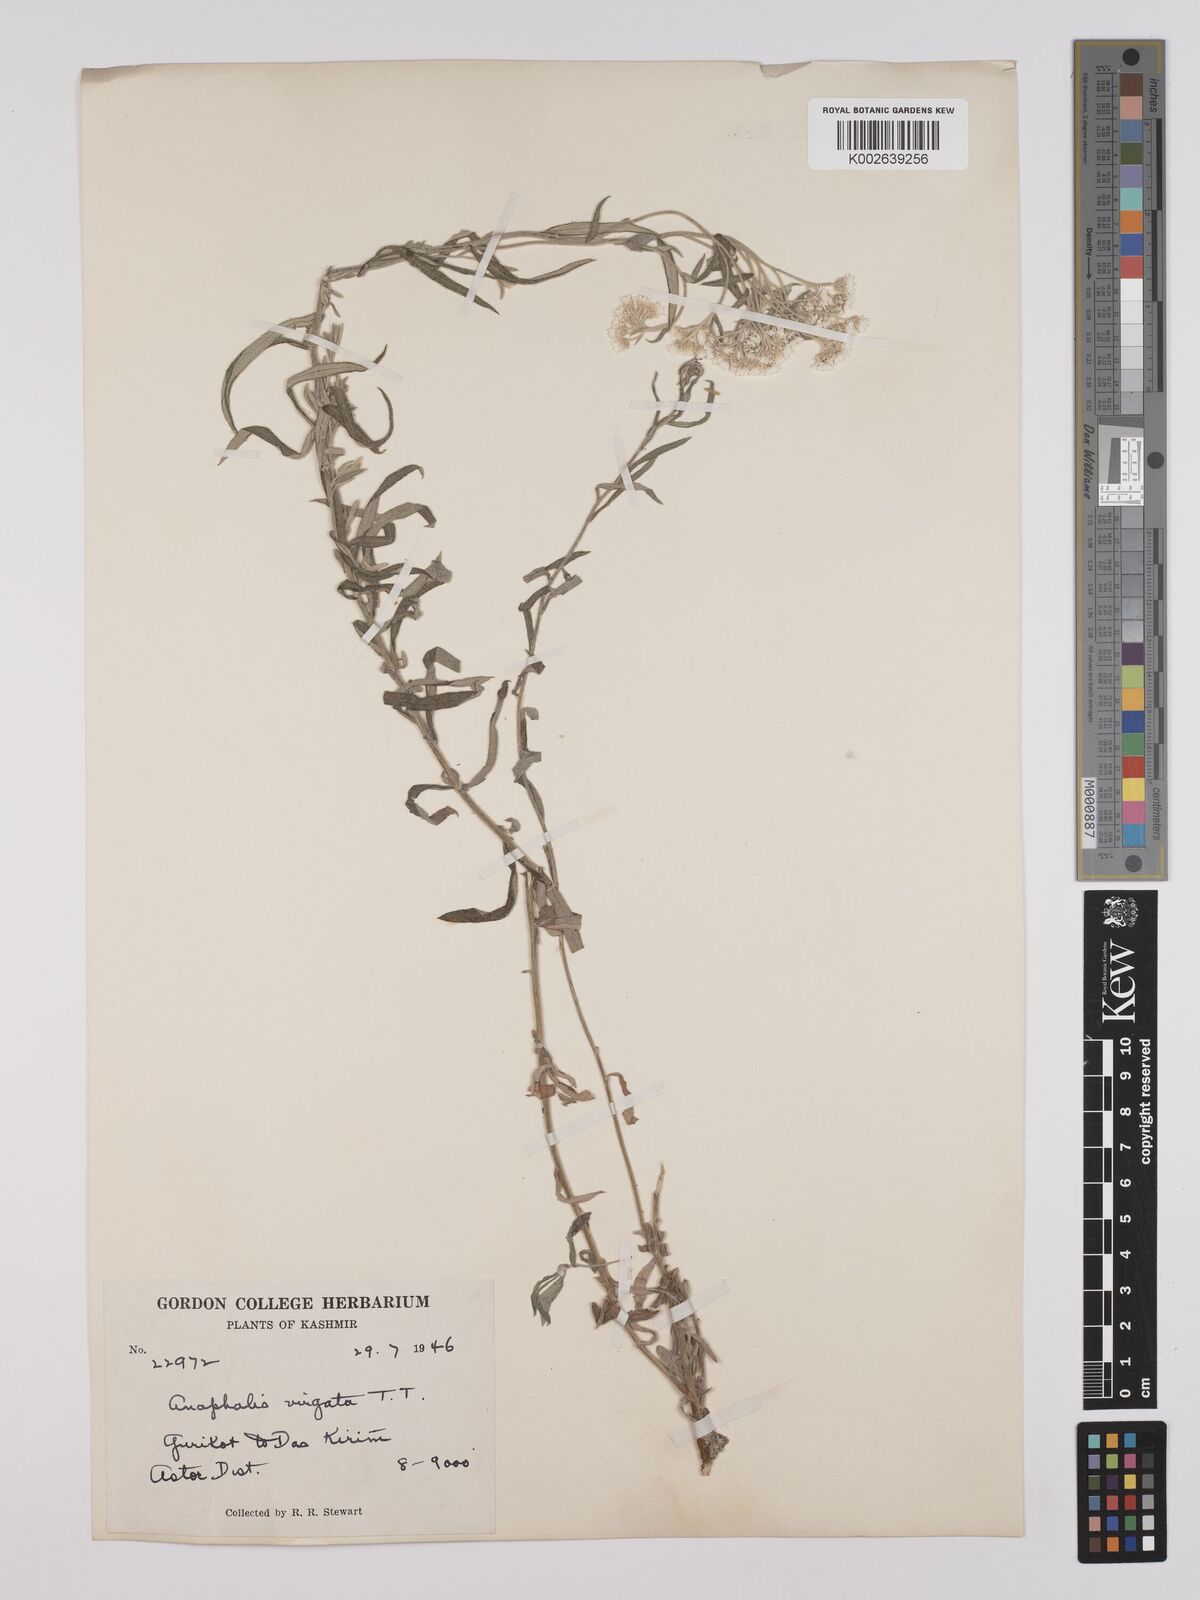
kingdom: Plantae
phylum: Tracheophyta
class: Magnoliopsida
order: Asterales
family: Asteraceae
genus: Anaphalis
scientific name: Anaphalis virgata
